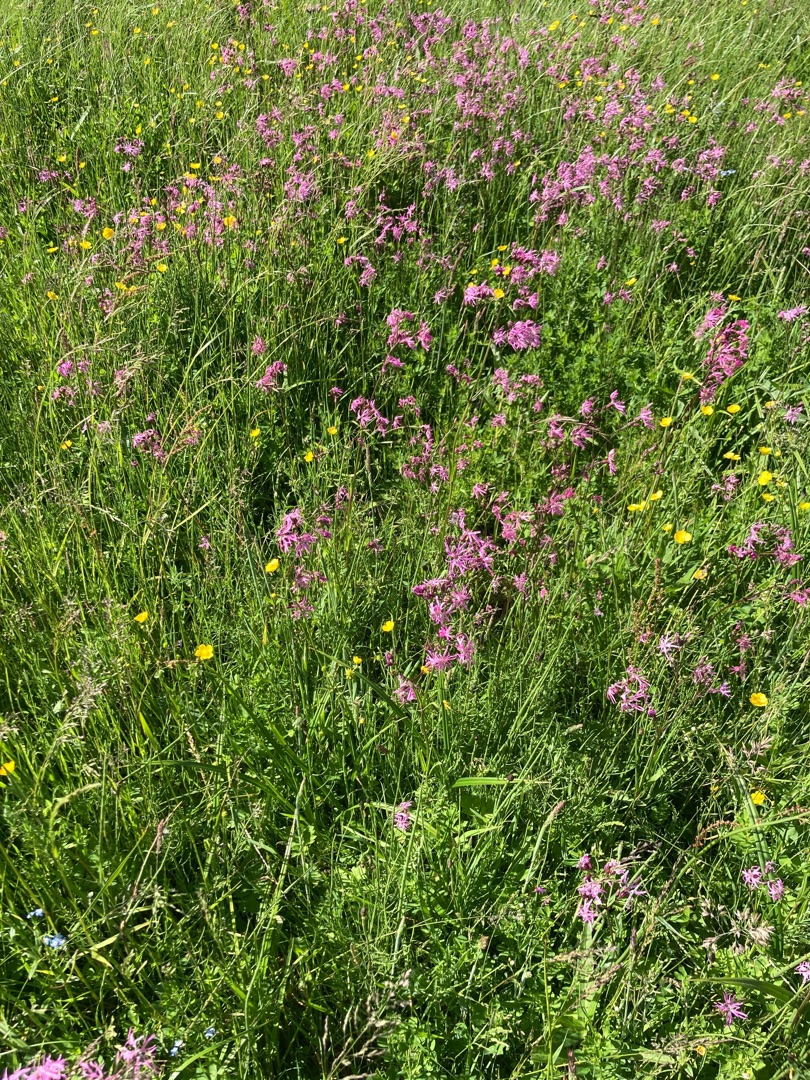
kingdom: Plantae
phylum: Tracheophyta
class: Magnoliopsida
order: Caryophyllales
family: Caryophyllaceae
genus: Silene
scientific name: Silene flos-cuculi
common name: Trævlekrone
